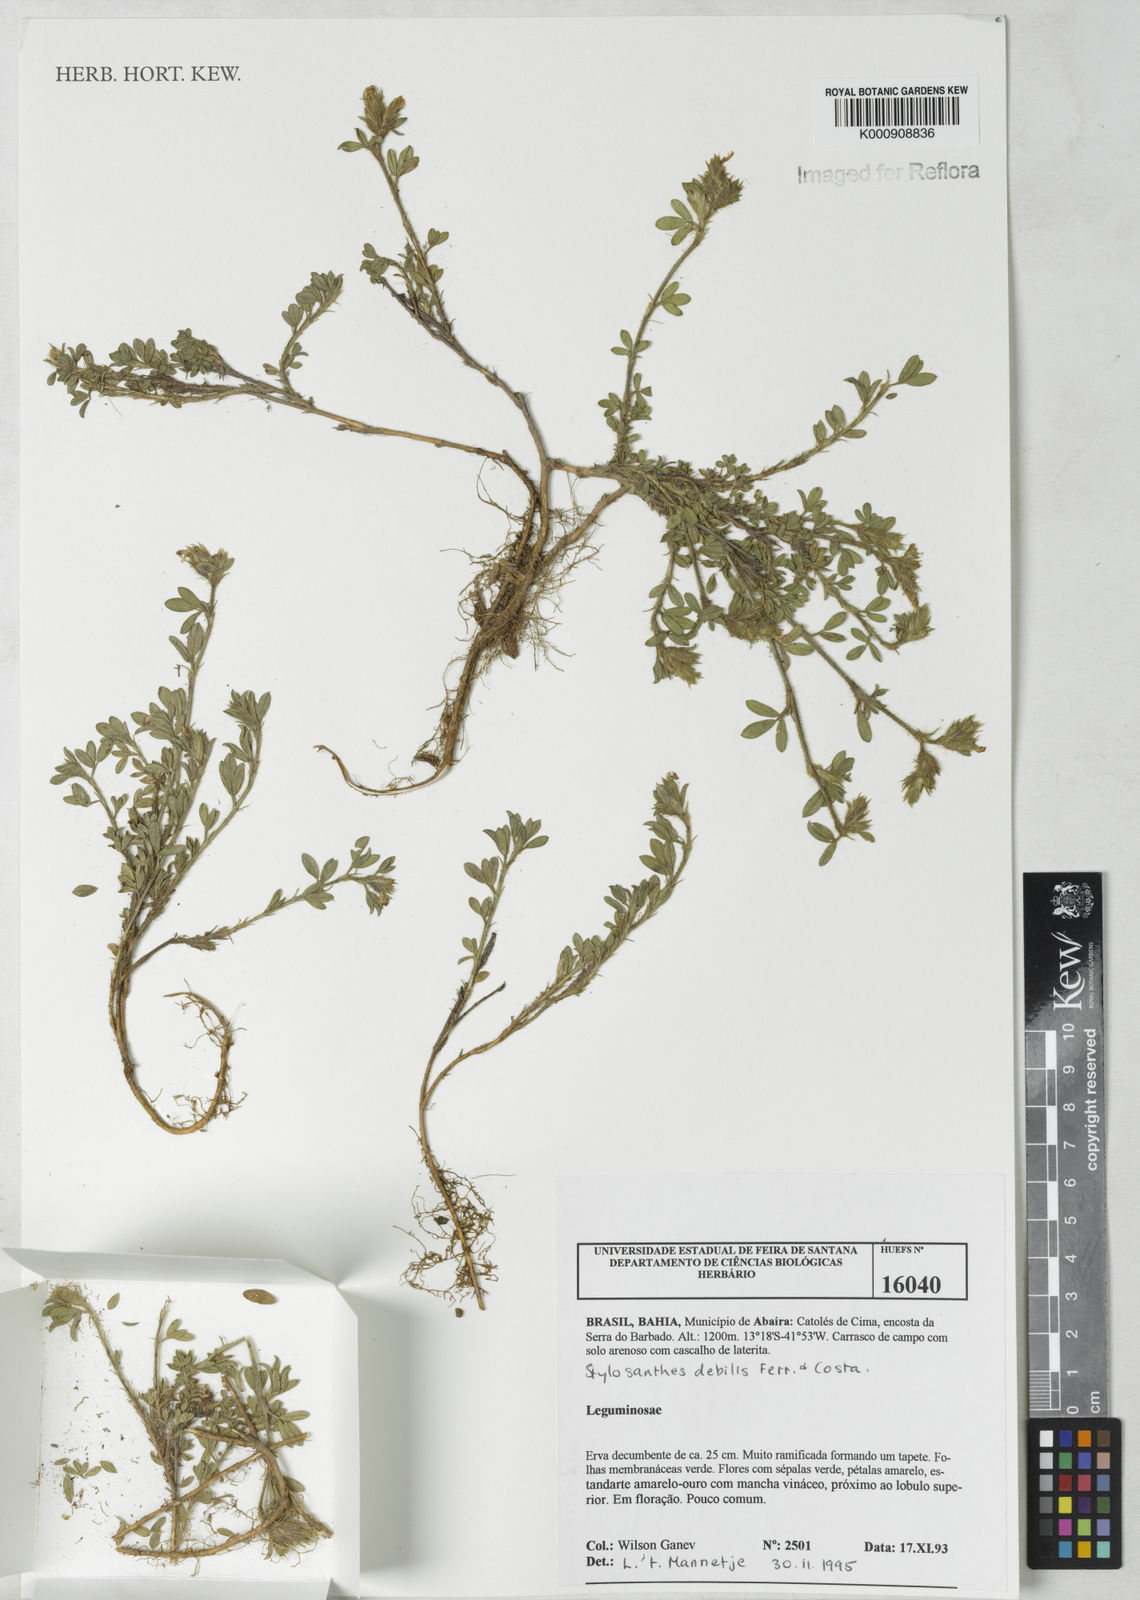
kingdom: Plantae
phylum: Tracheophyta
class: Magnoliopsida
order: Fabales
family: Fabaceae
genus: Stylosanthes
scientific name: Stylosanthes viscosa
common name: Viscid pencil-flower
